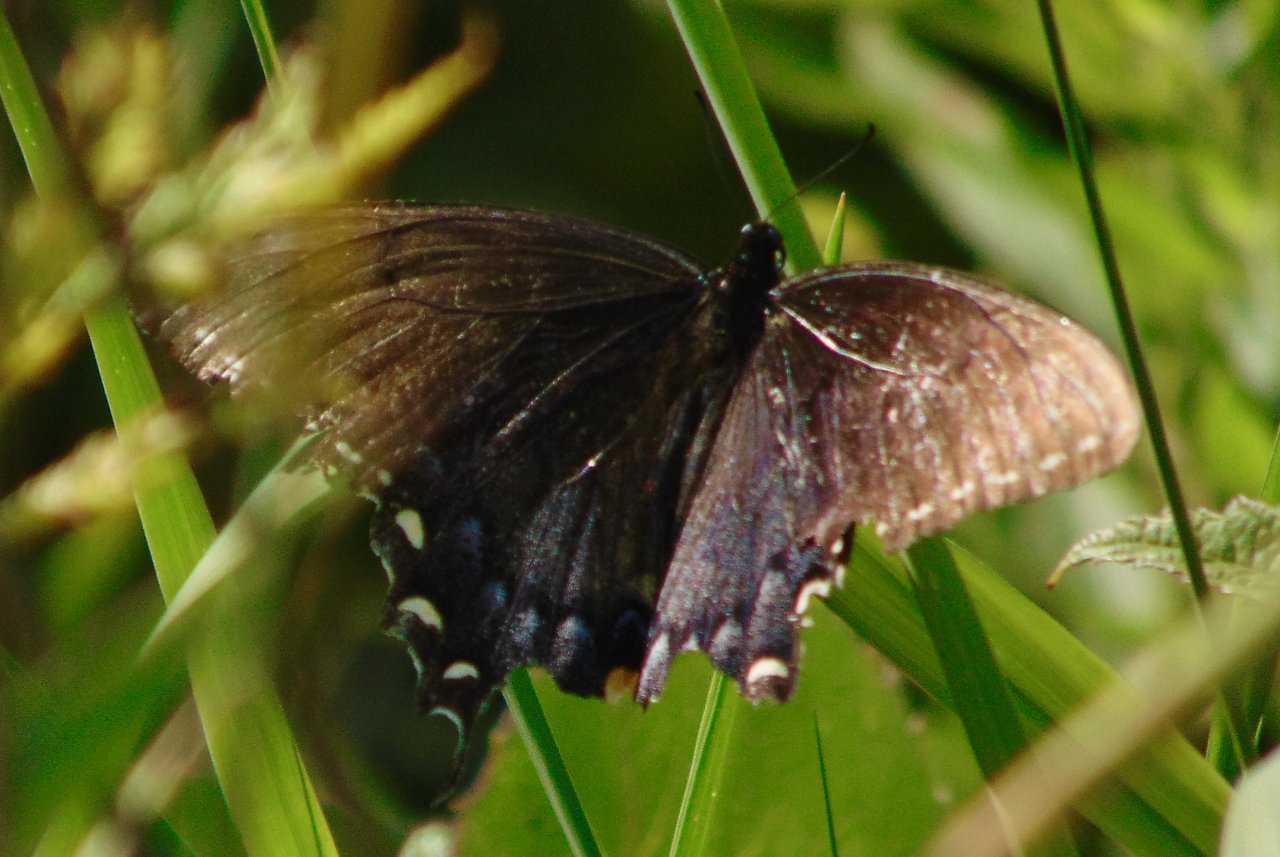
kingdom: Animalia
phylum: Arthropoda
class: Insecta
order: Lepidoptera
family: Papilionidae
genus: Pterourus
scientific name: Pterourus glaucus
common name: Eastern Tiger Swallowtail
